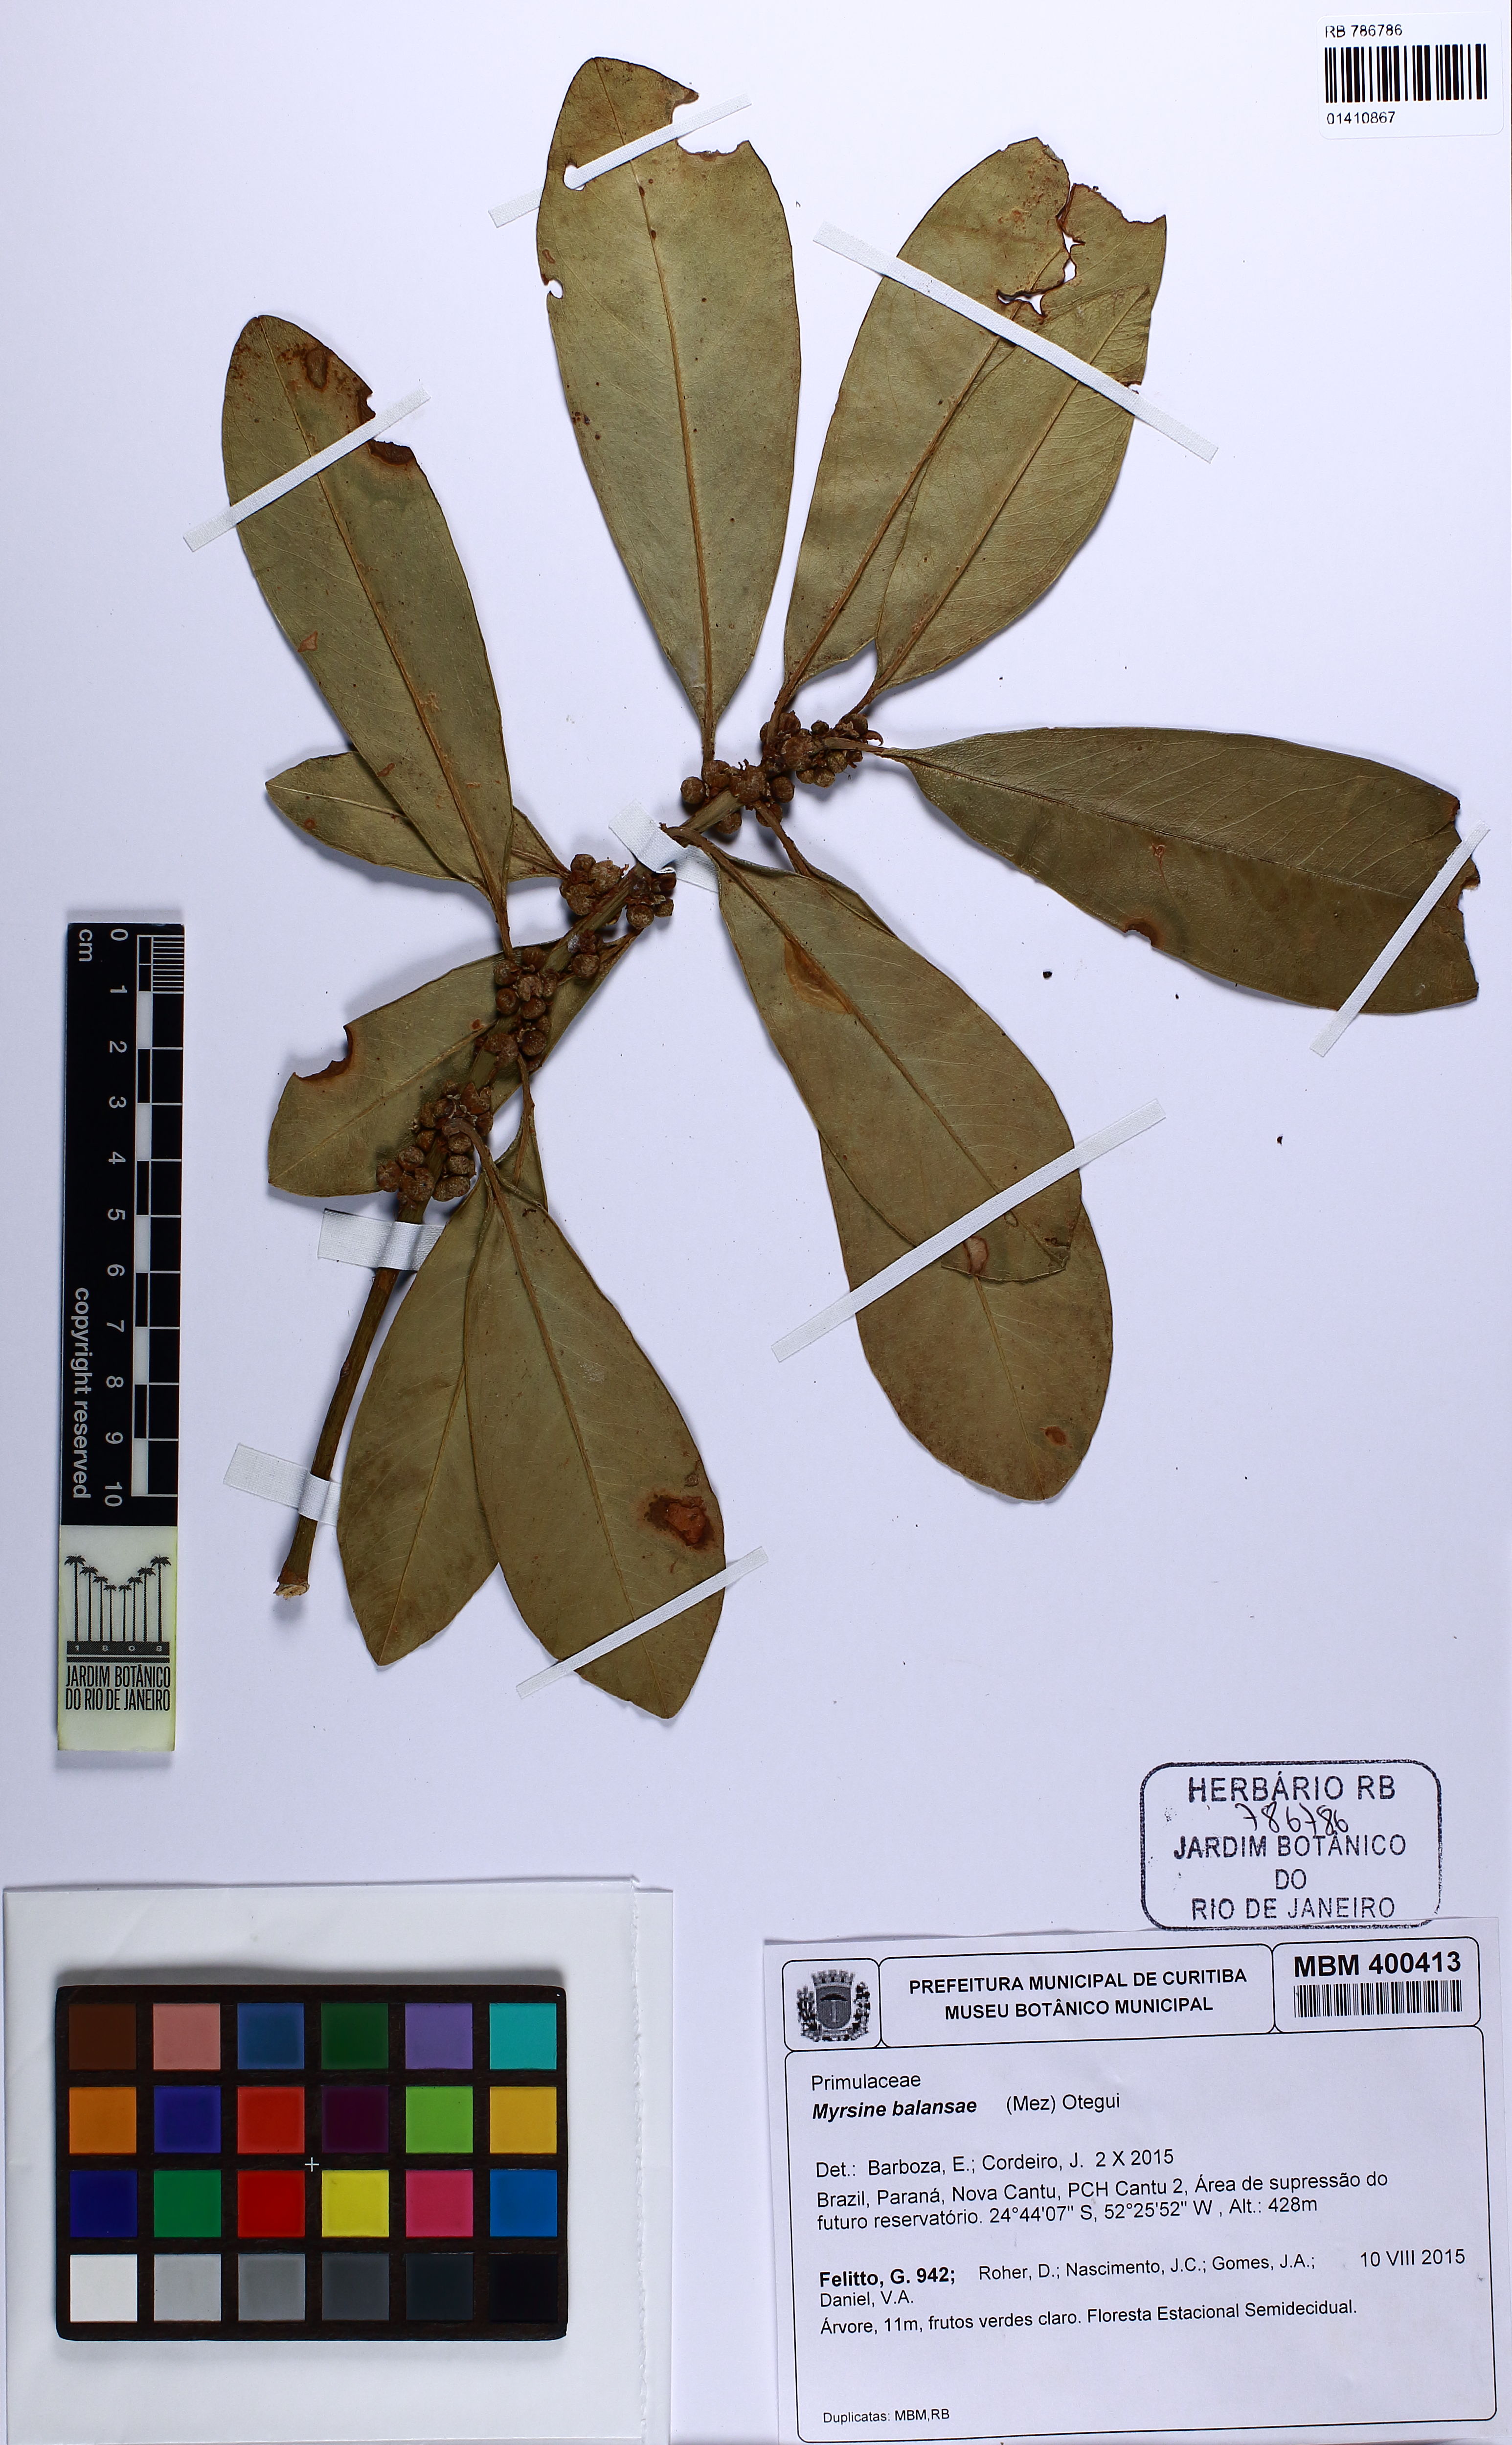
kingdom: Plantae
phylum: Tracheophyta
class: Magnoliopsida
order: Ericales
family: Primulaceae
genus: Myrsine
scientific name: Myrsine balansae
